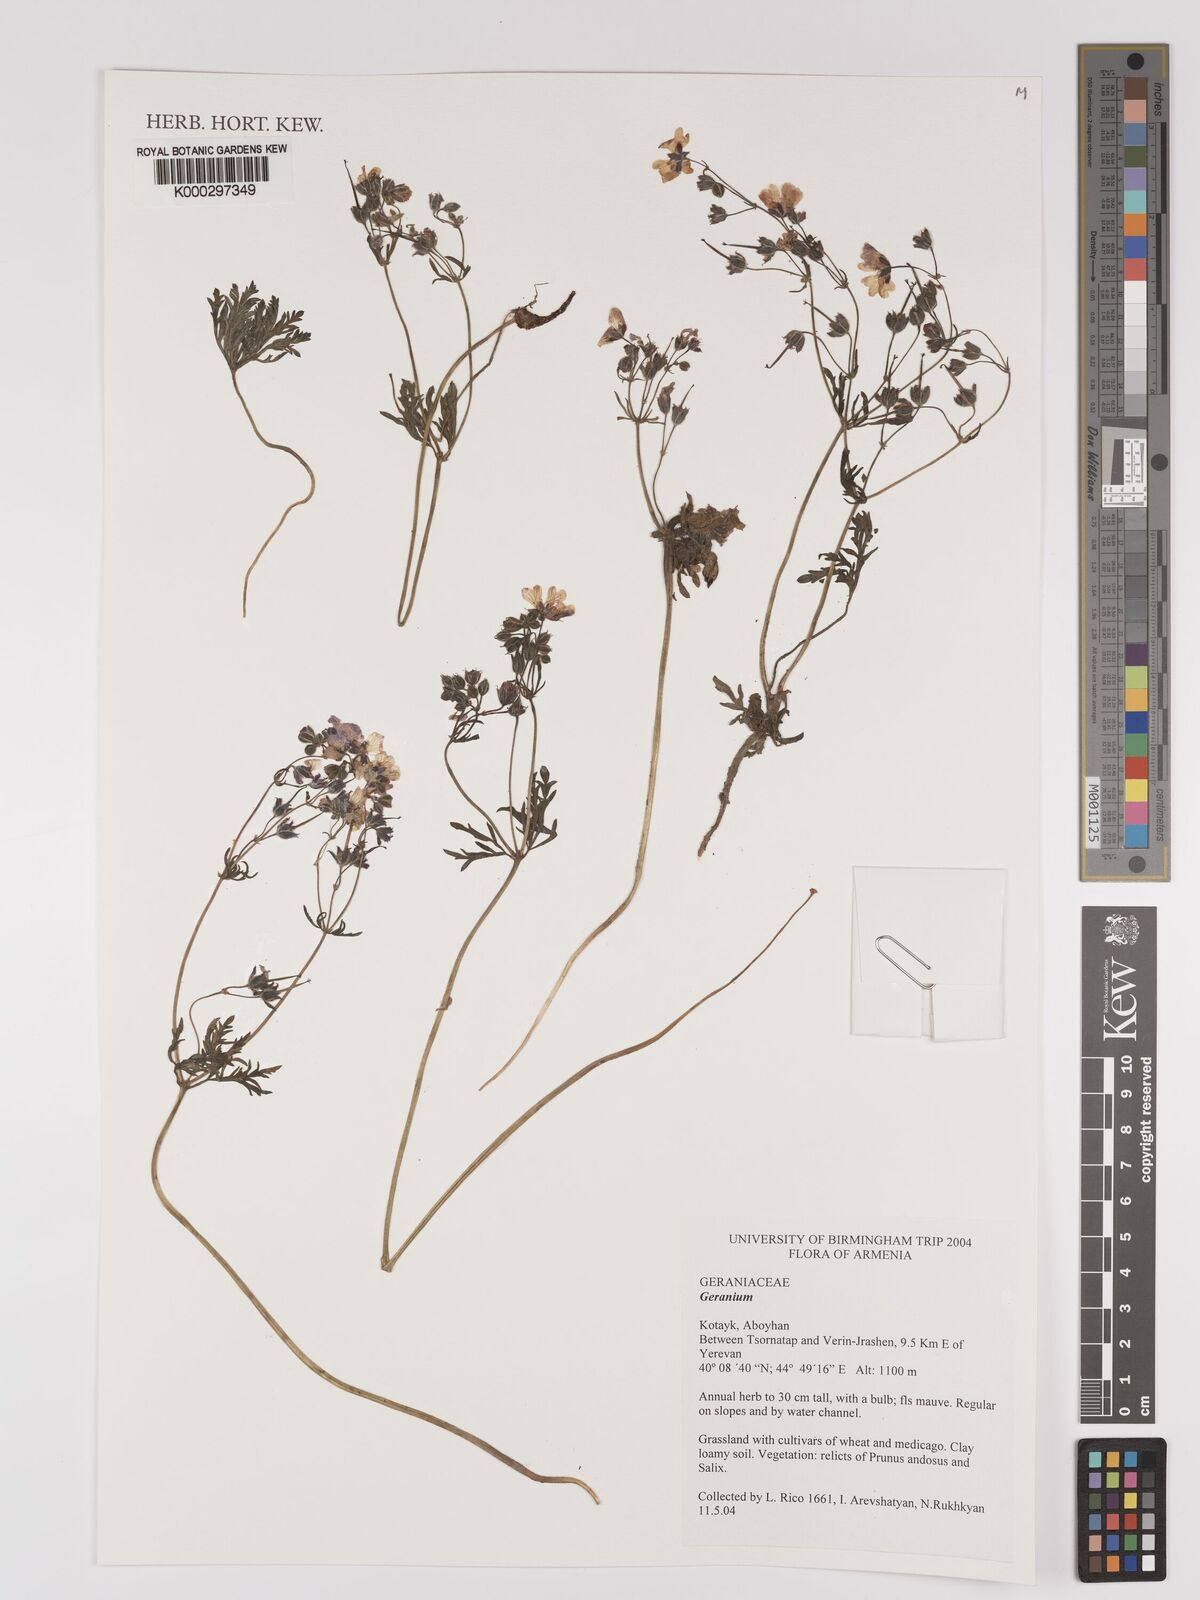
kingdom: Plantae
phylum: Tracheophyta
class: Magnoliopsida
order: Geraniales
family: Geraniaceae
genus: Geranium
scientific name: Geranium
